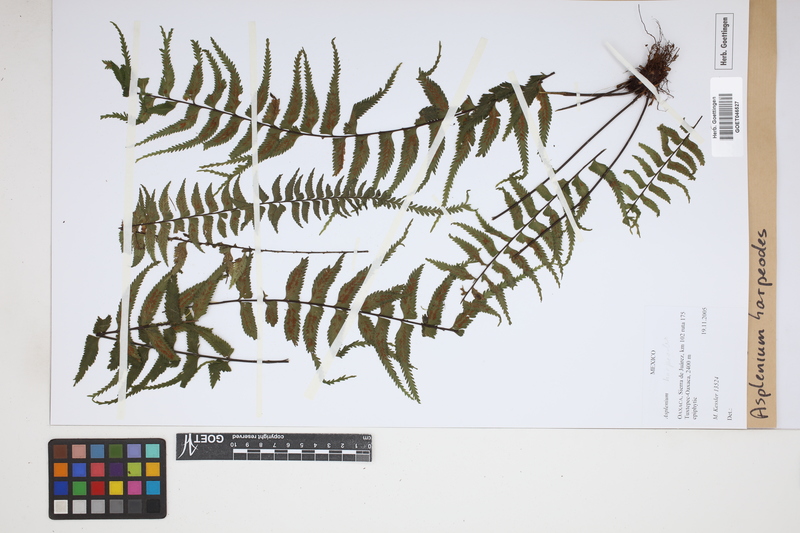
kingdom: Plantae
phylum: Tracheophyta
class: Polypodiopsida
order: Polypodiales
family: Aspleniaceae
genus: Asplenium
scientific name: Asplenium harpeodes
